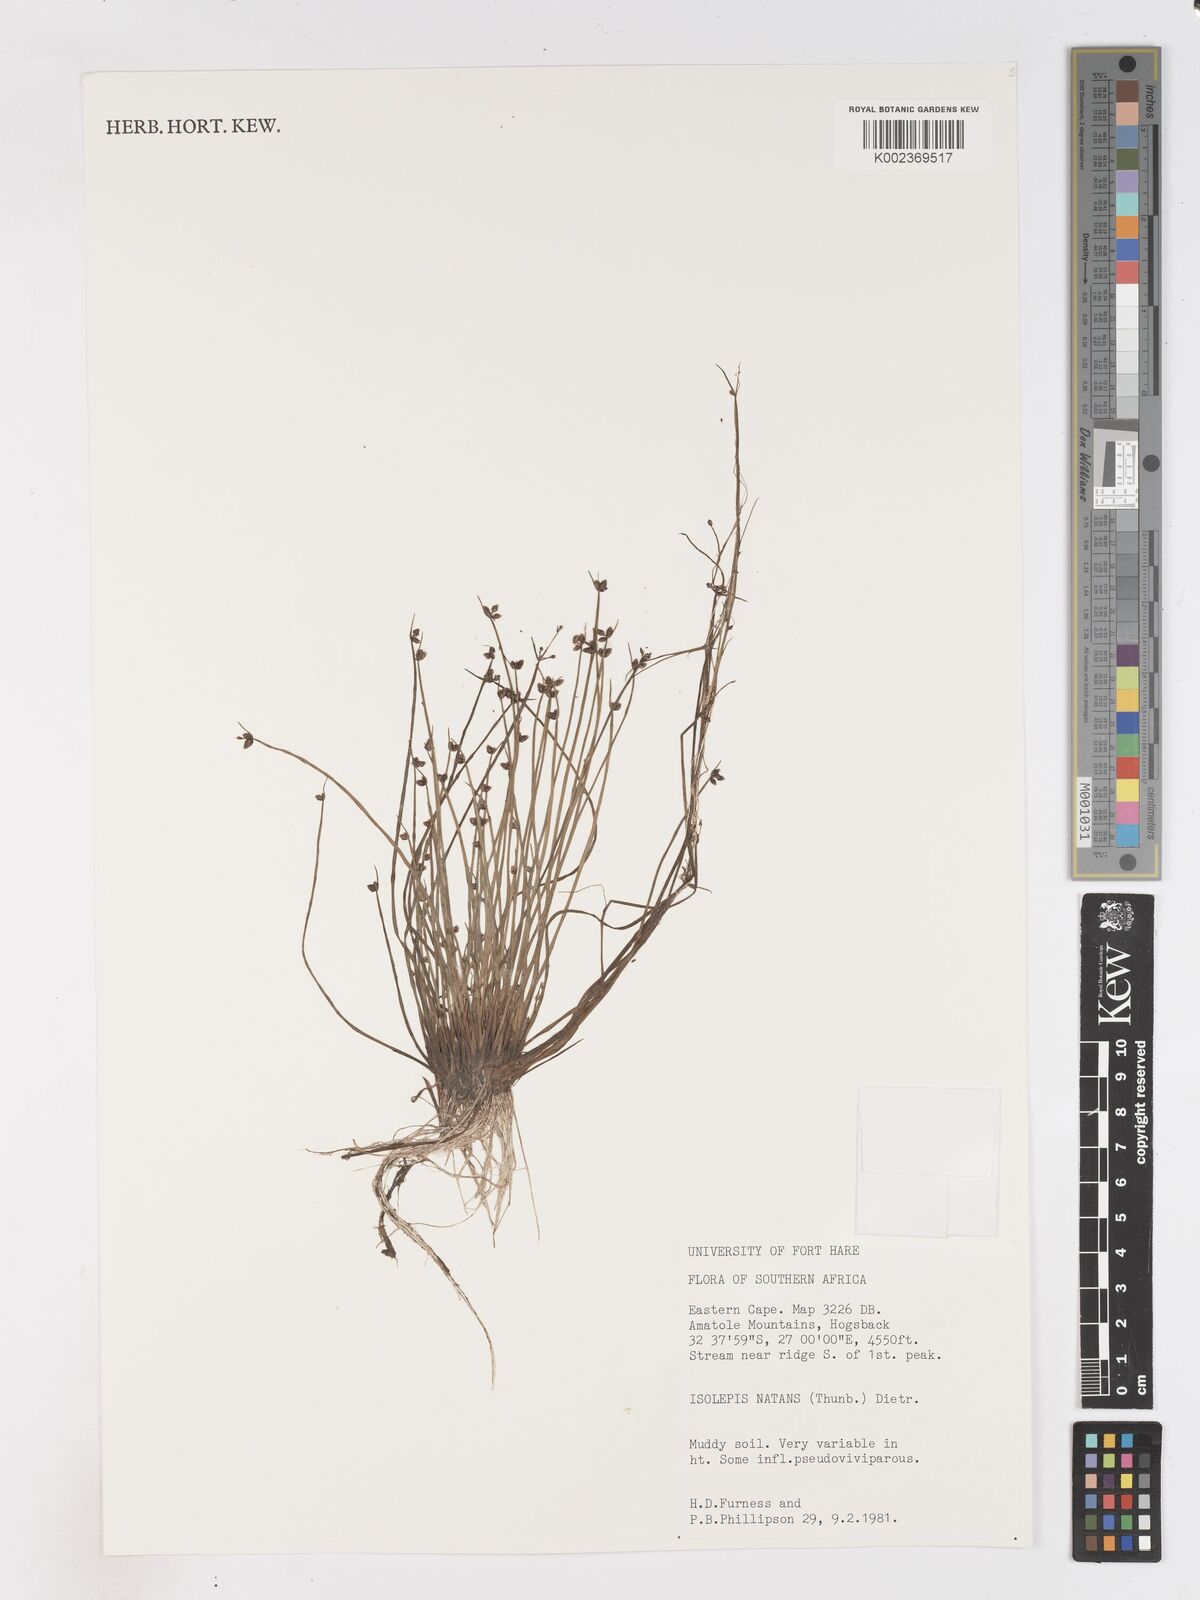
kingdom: Plantae
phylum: Tracheophyta
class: Liliopsida
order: Poales
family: Cyperaceae
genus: Isolepis
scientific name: Isolepis natans
